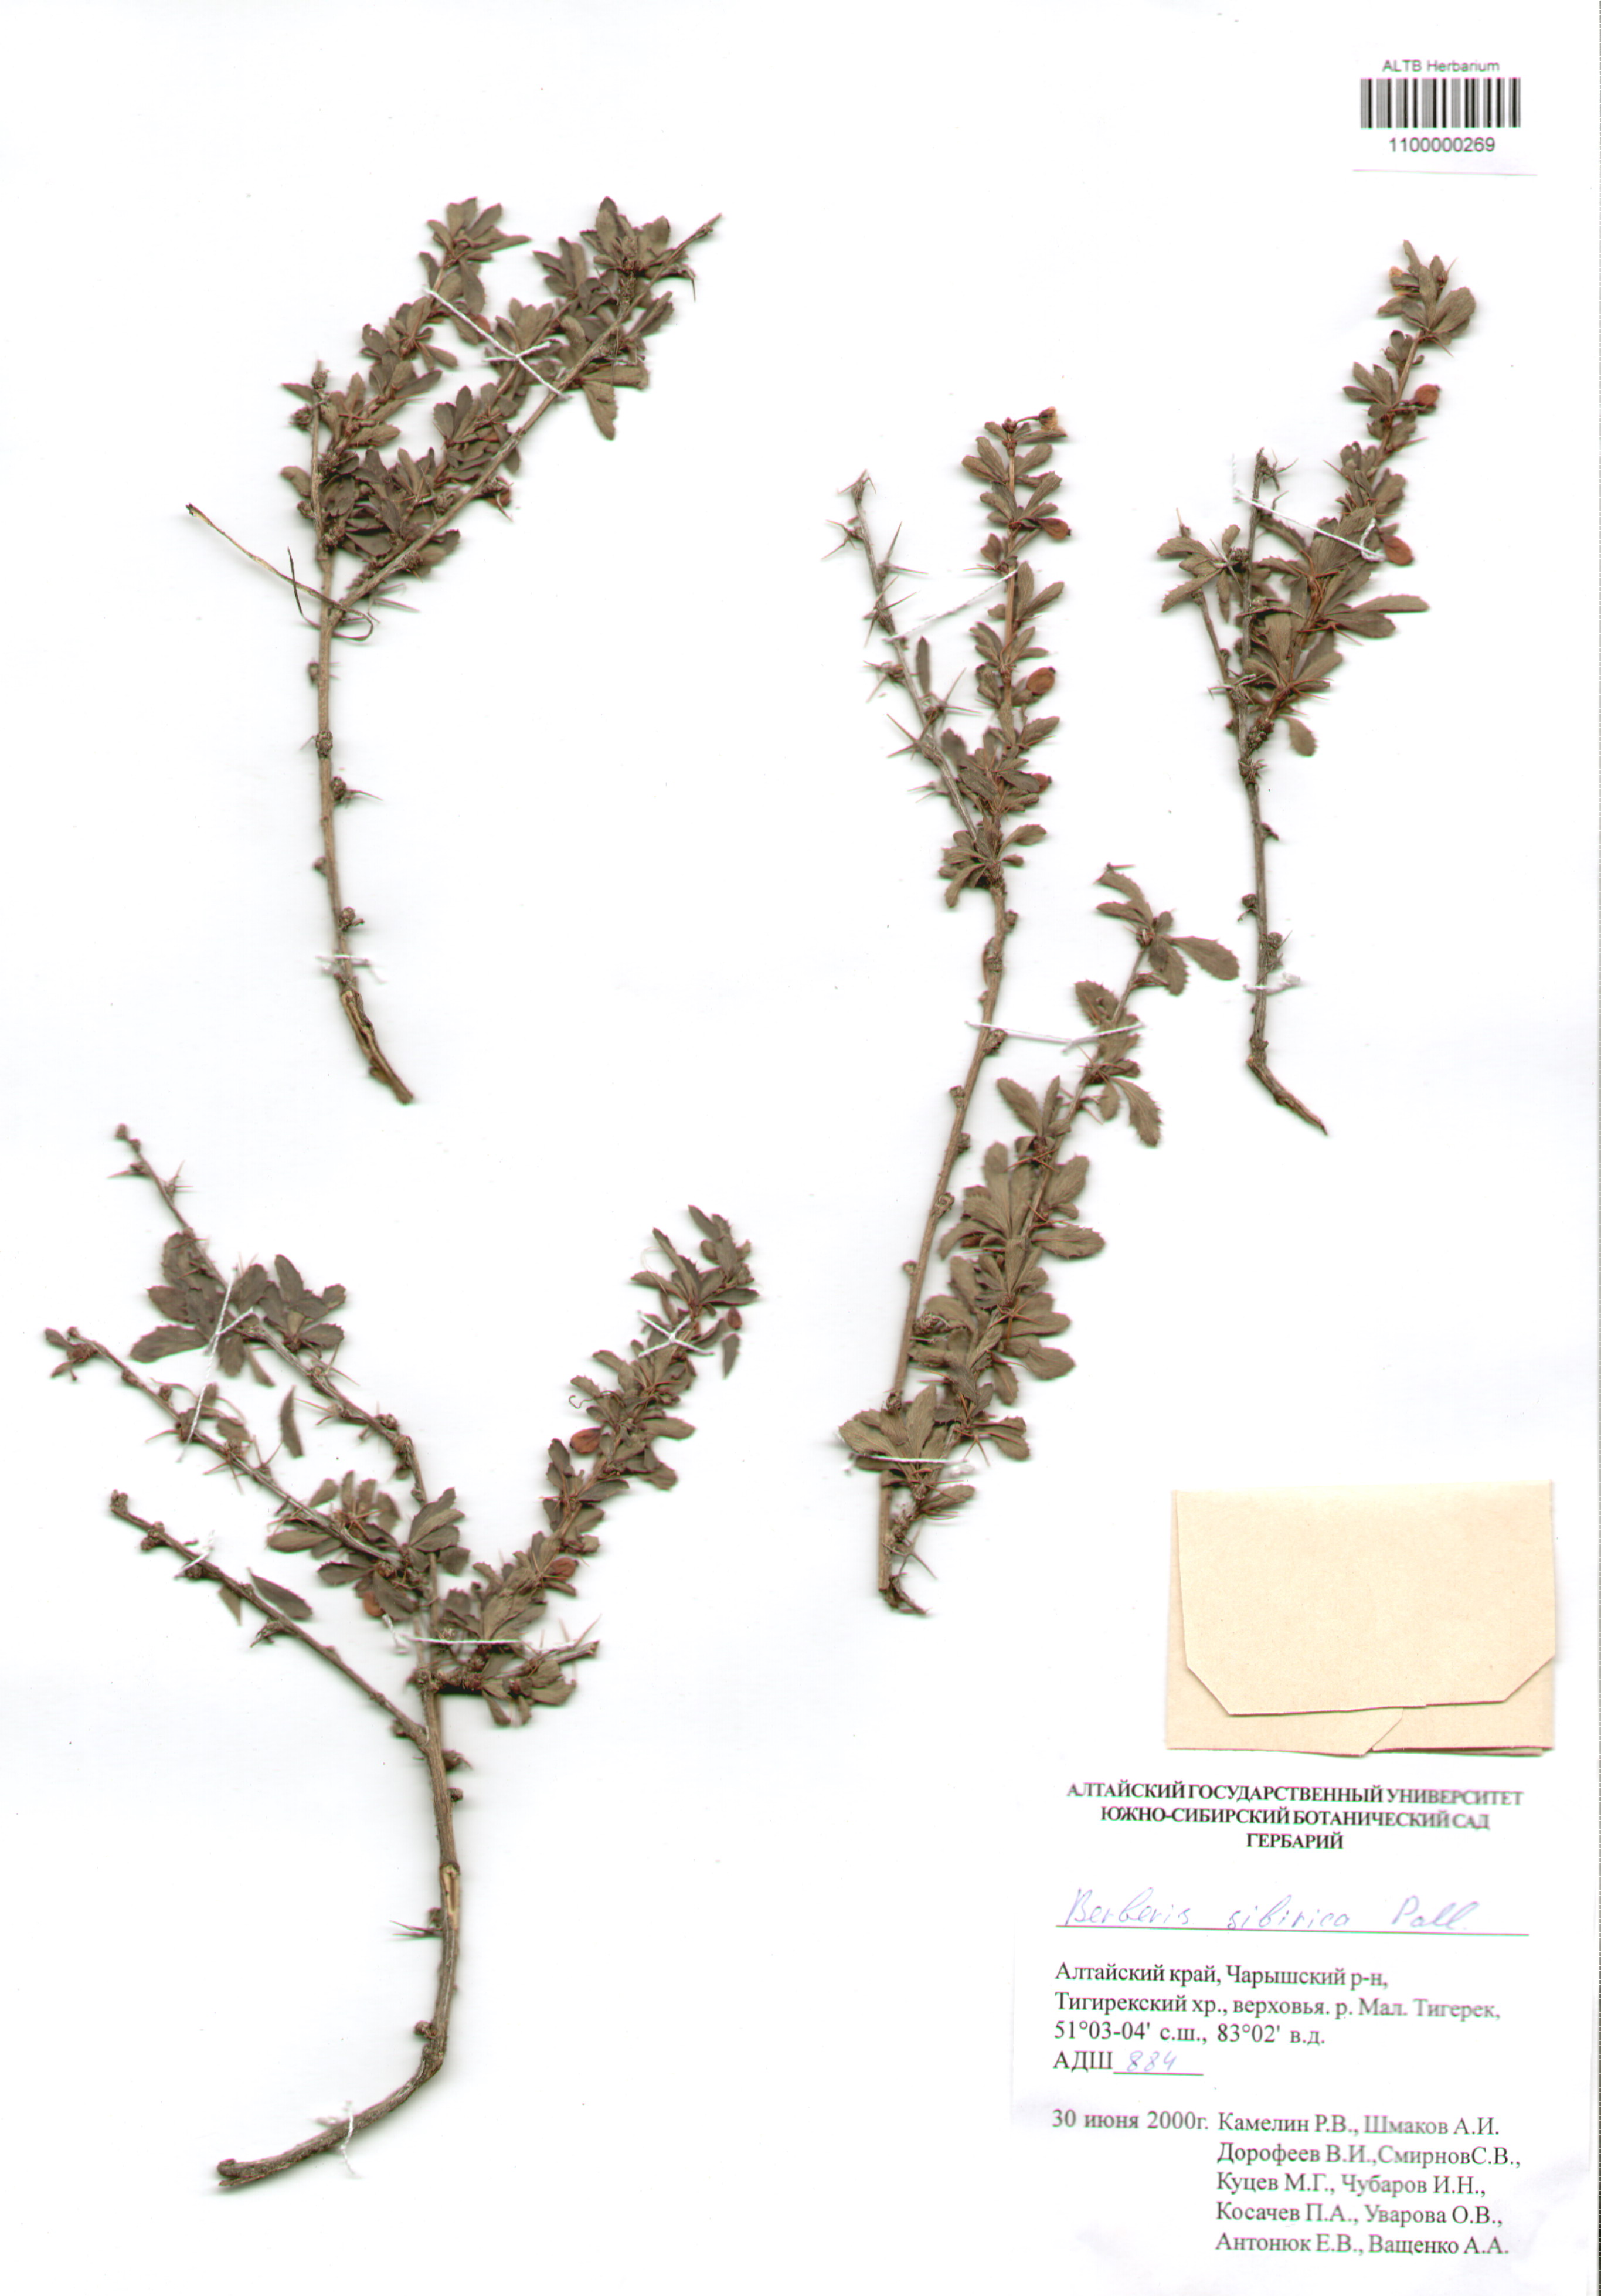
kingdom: Plantae
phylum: Tracheophyta
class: Magnoliopsida
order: Ranunculales
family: Berberidaceae
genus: Berberis
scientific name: Berberis sibirica
